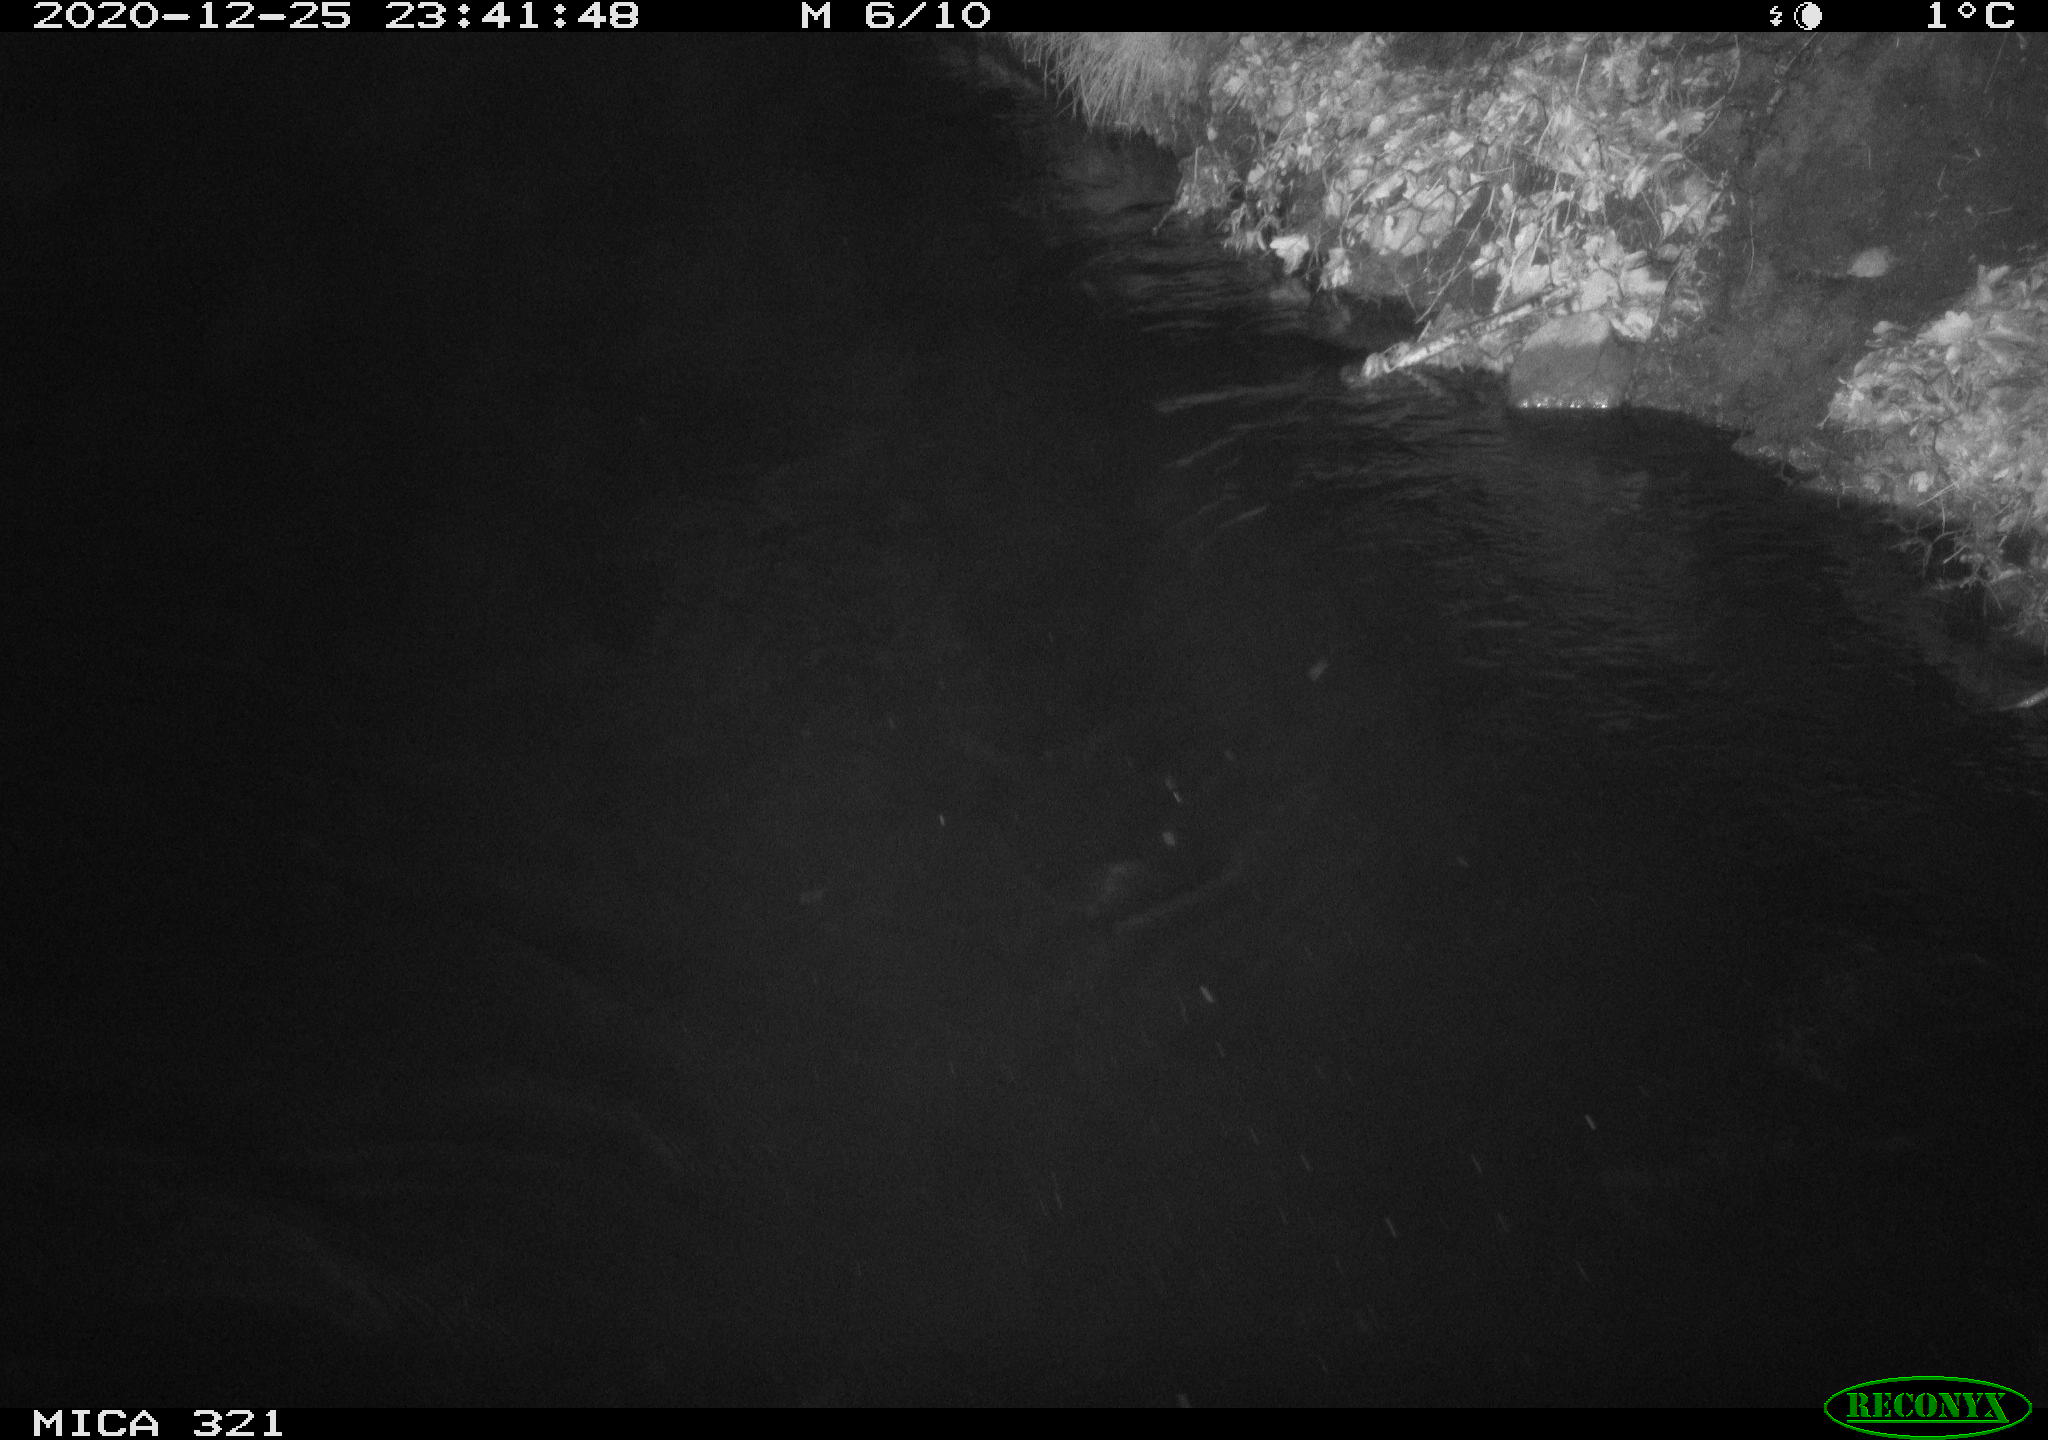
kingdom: Animalia
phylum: Chordata
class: Aves
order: Anseriformes
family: Anatidae
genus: Anas
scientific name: Anas platyrhynchos
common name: Mallard
